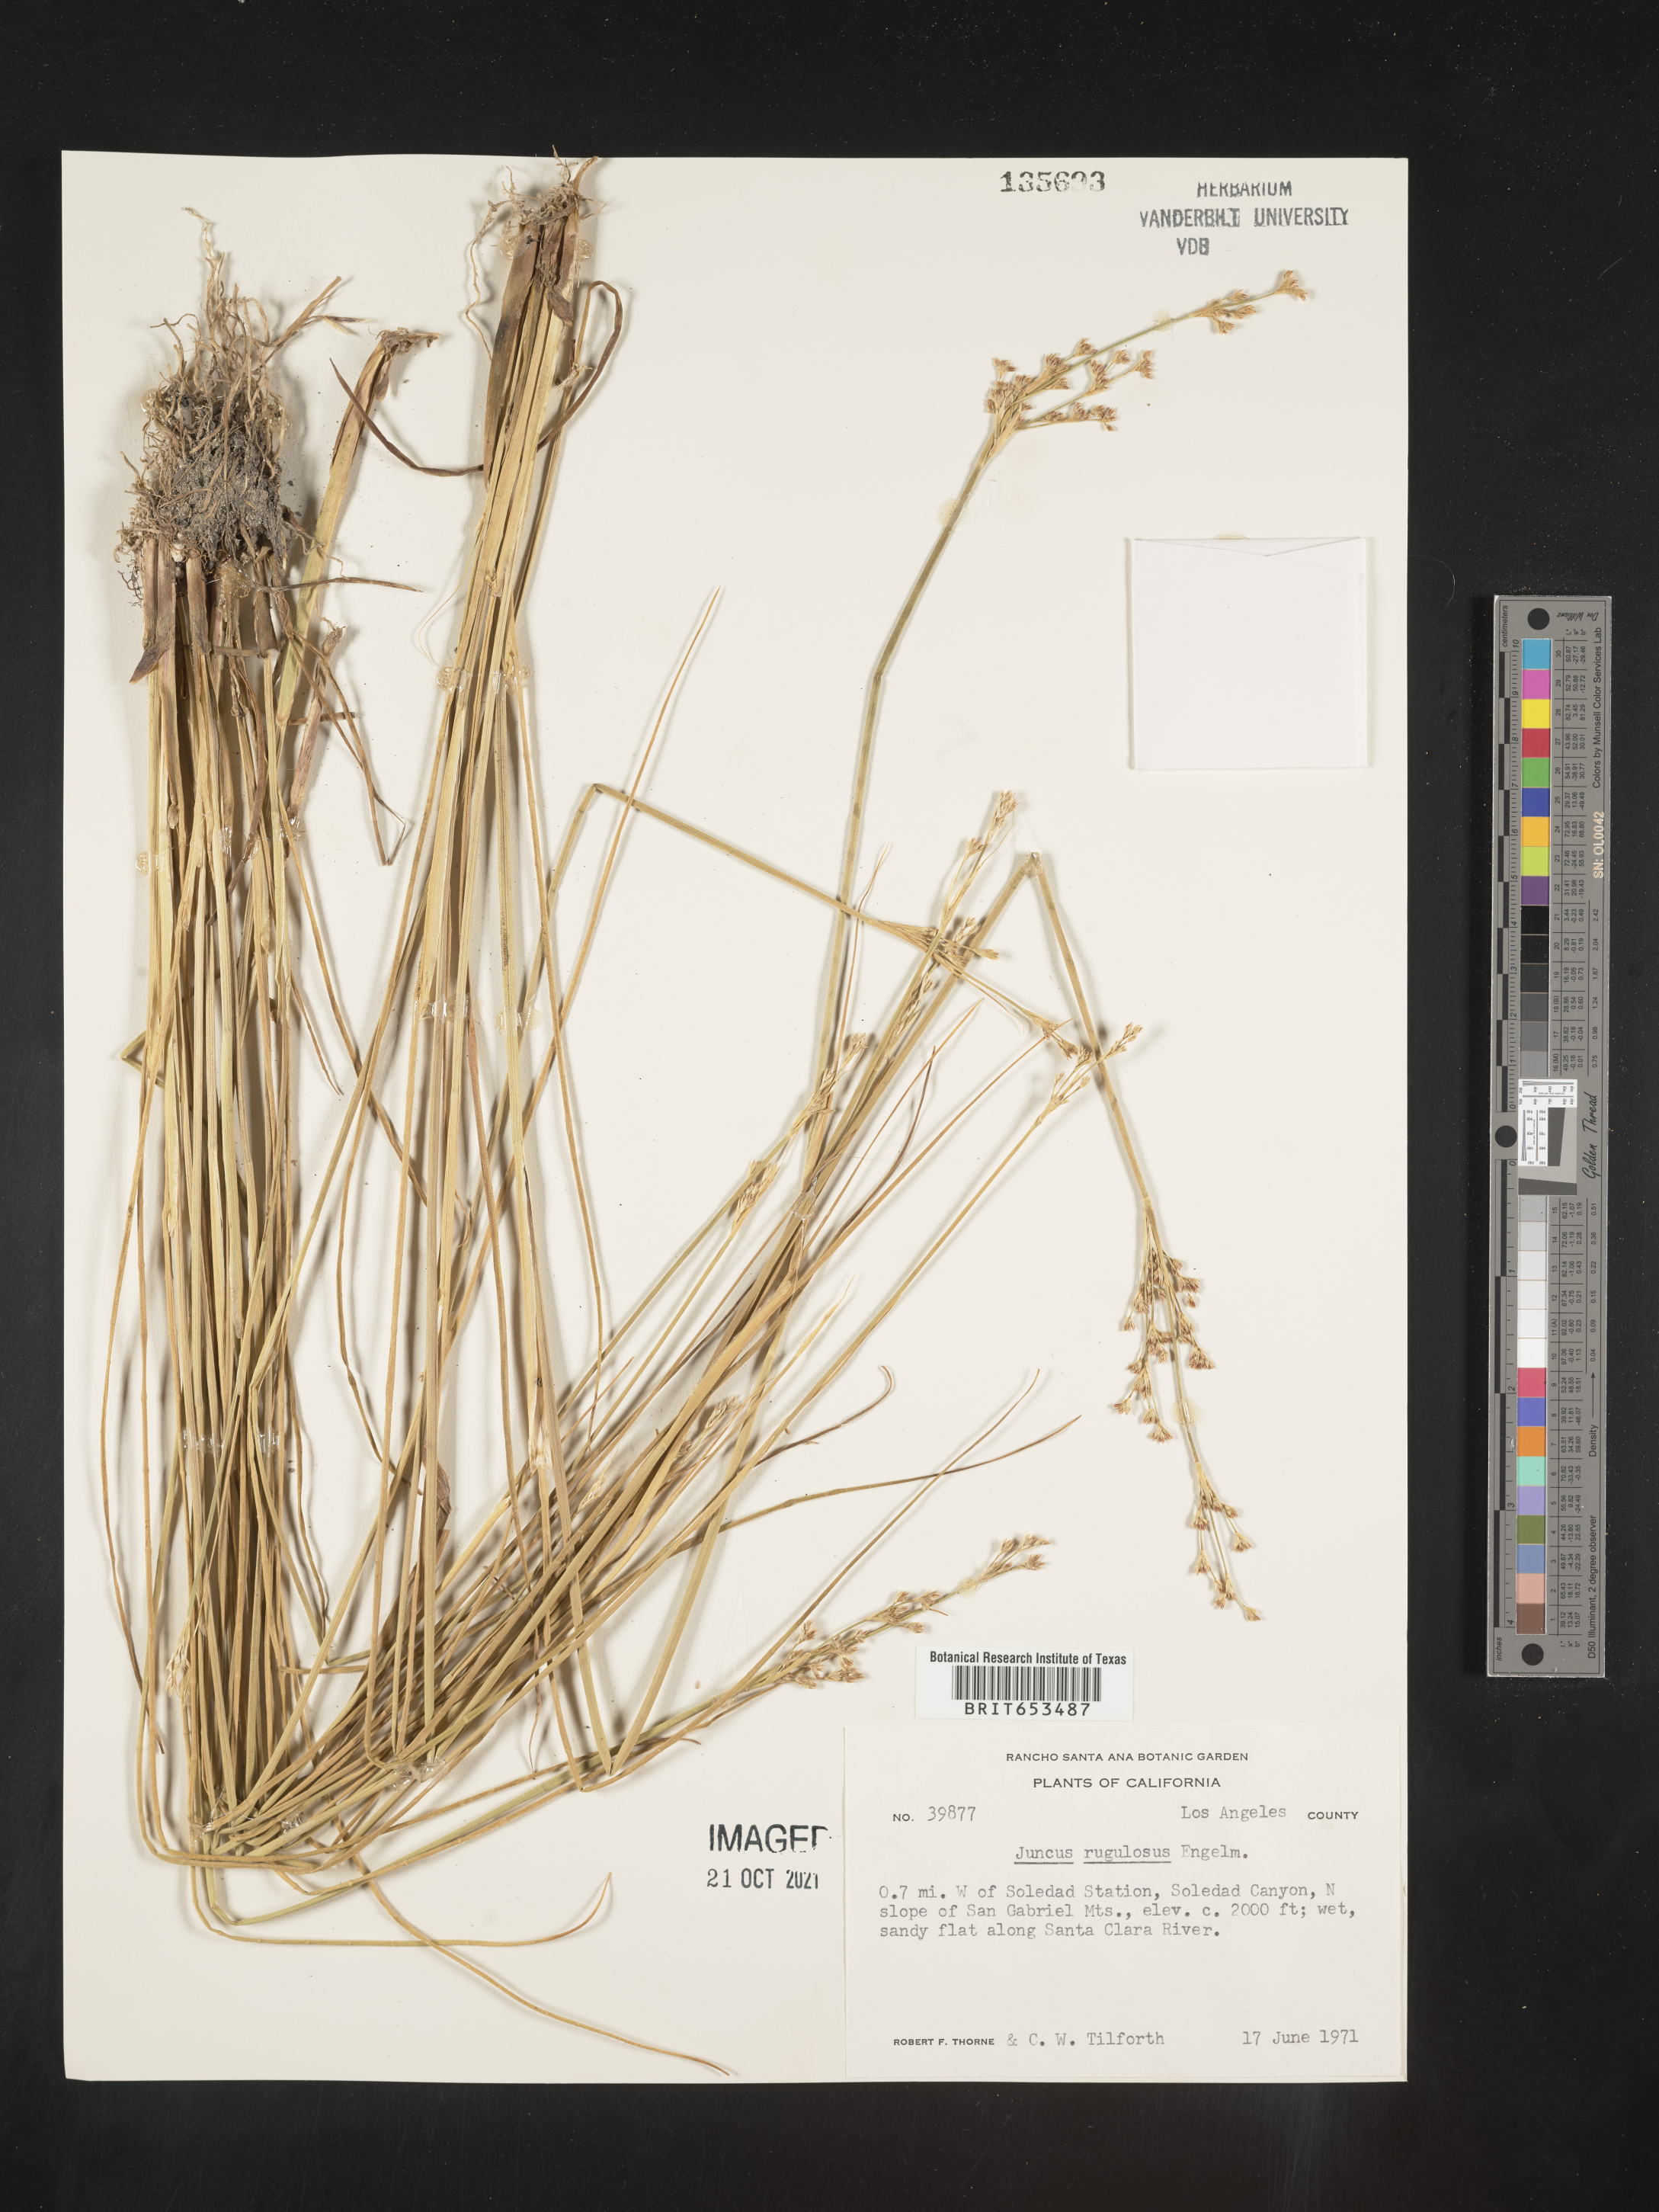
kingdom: Plantae
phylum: Tracheophyta
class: Liliopsida
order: Poales
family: Juncaceae
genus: Juncus
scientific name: Juncus rugulosus
